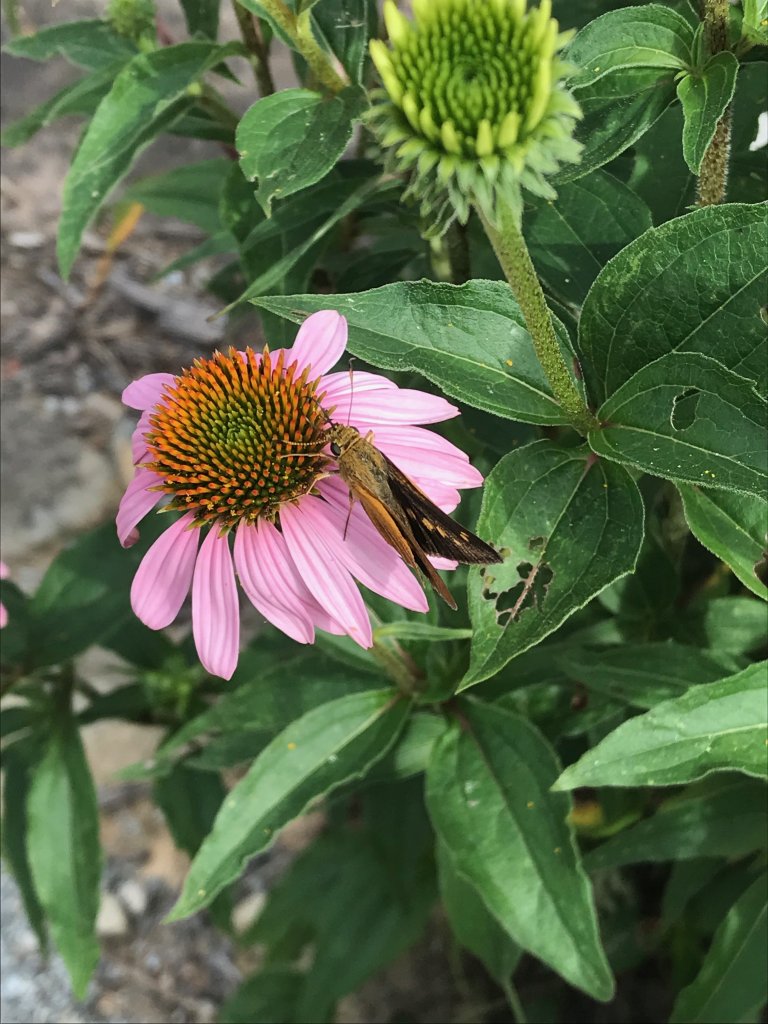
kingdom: Animalia
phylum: Arthropoda
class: Insecta
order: Lepidoptera
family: Hesperiidae
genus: Euphyes
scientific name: Euphyes dion
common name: Dion Skipper
